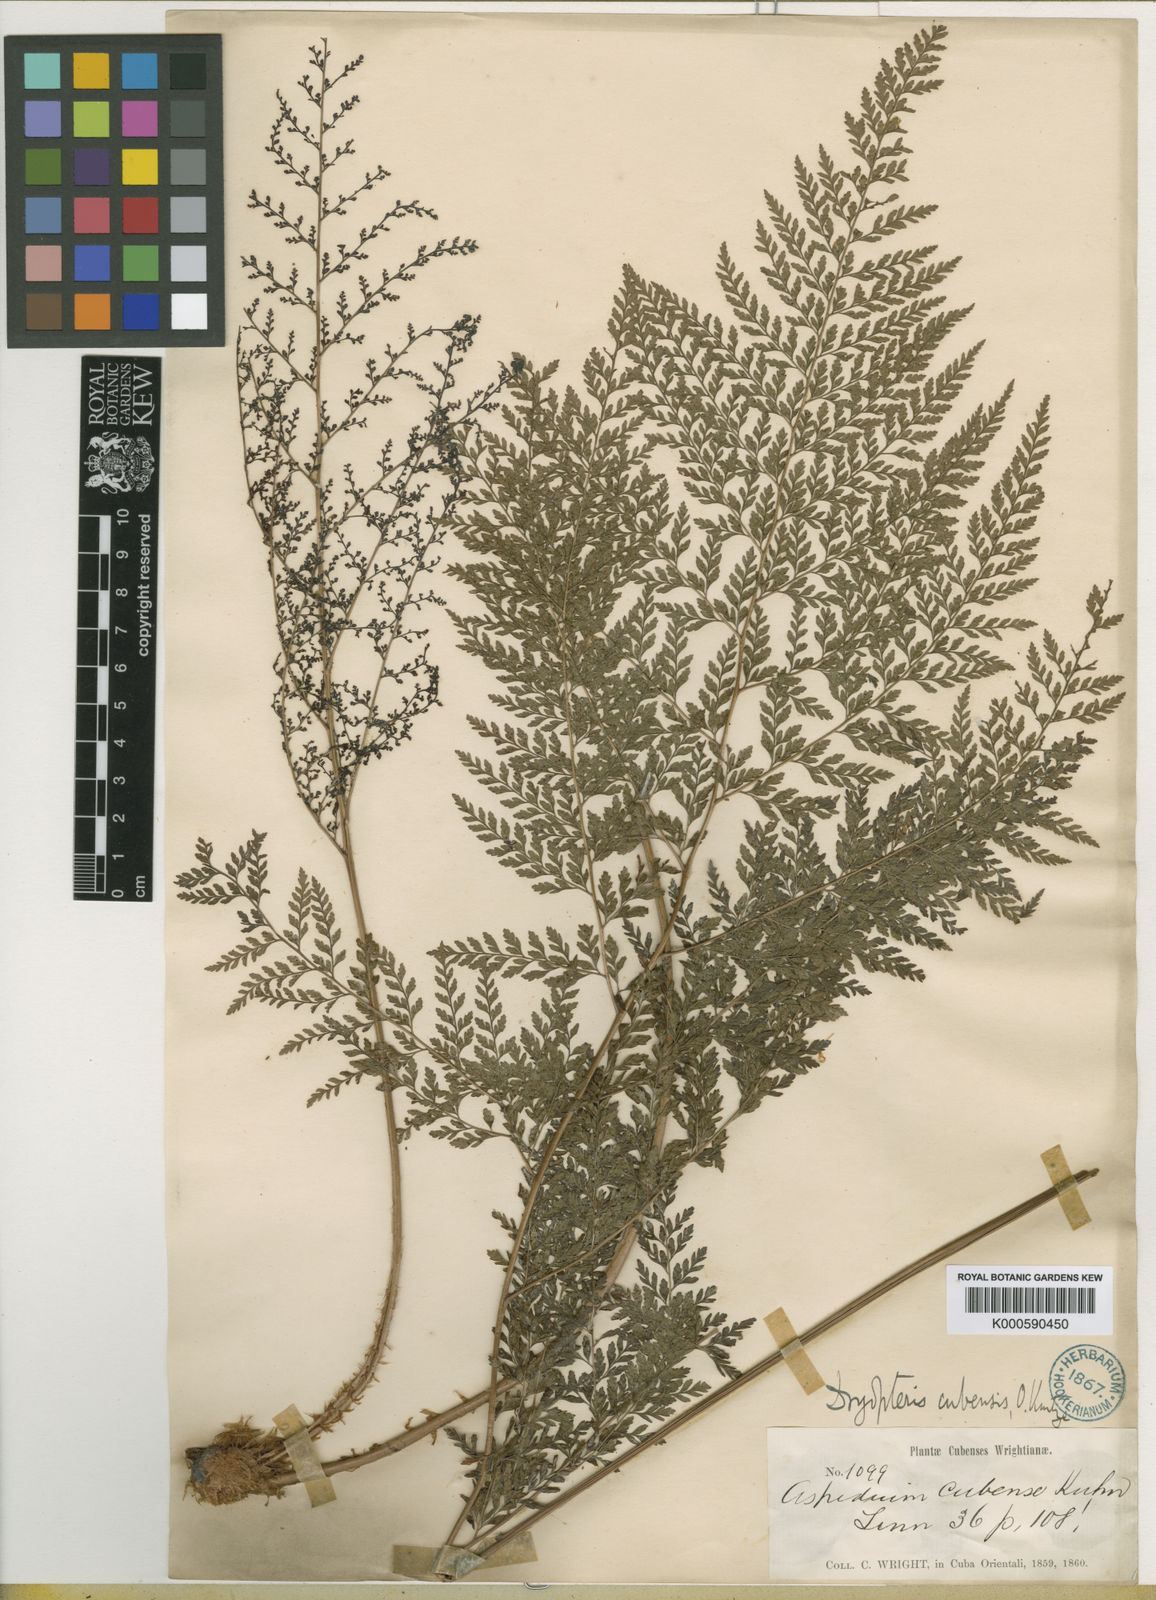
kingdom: Plantae
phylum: Tracheophyta
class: Polypodiopsida
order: Polypodiales
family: Dryopteridaceae
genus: Arachniodes
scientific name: Arachniodes
